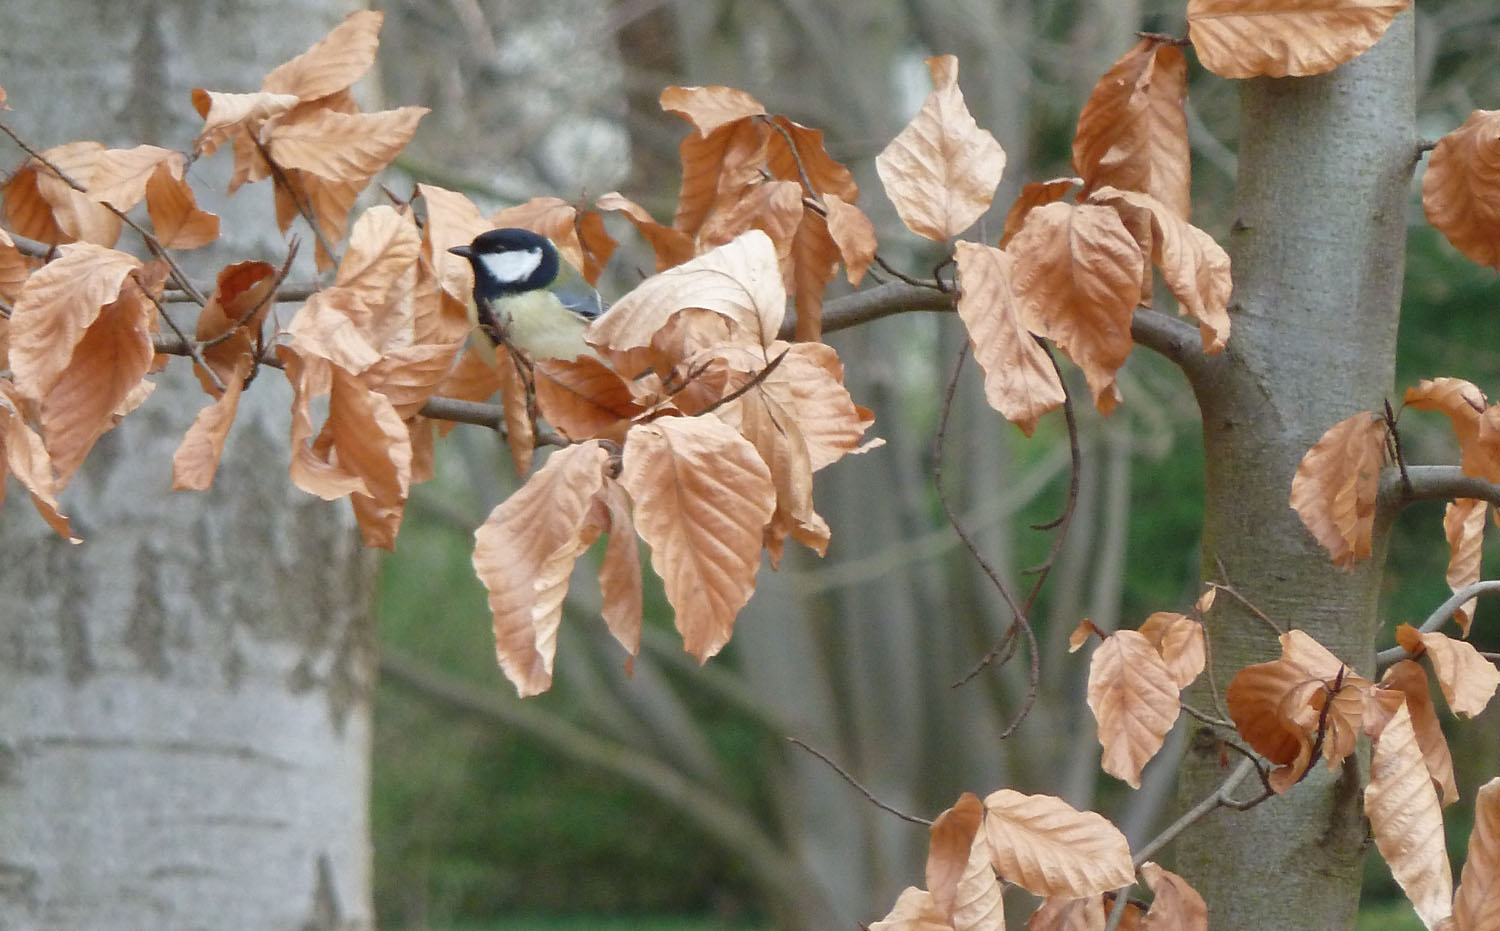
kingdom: Animalia
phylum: Chordata
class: Aves
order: Passeriformes
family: Paridae
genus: Parus
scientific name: Parus major
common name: Great tit
